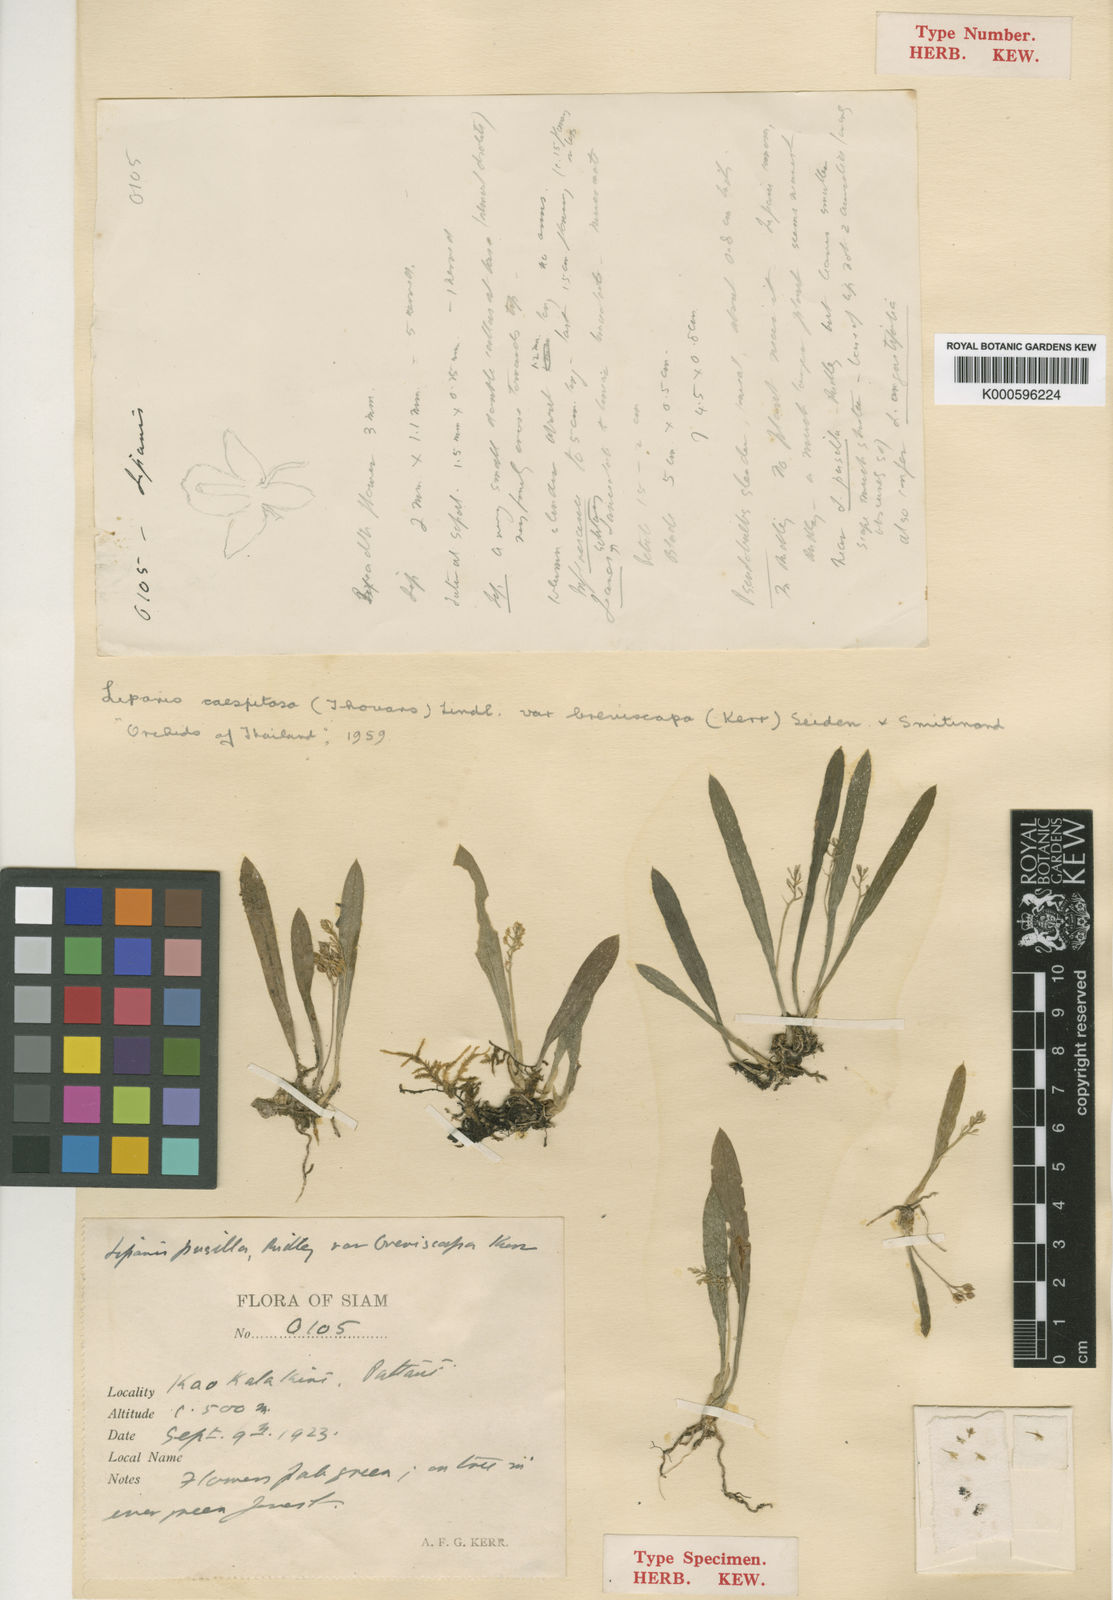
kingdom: Plantae
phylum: Tracheophyta
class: Liliopsida
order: Asparagales
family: Orchidaceae
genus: Liparis
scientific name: Liparis
